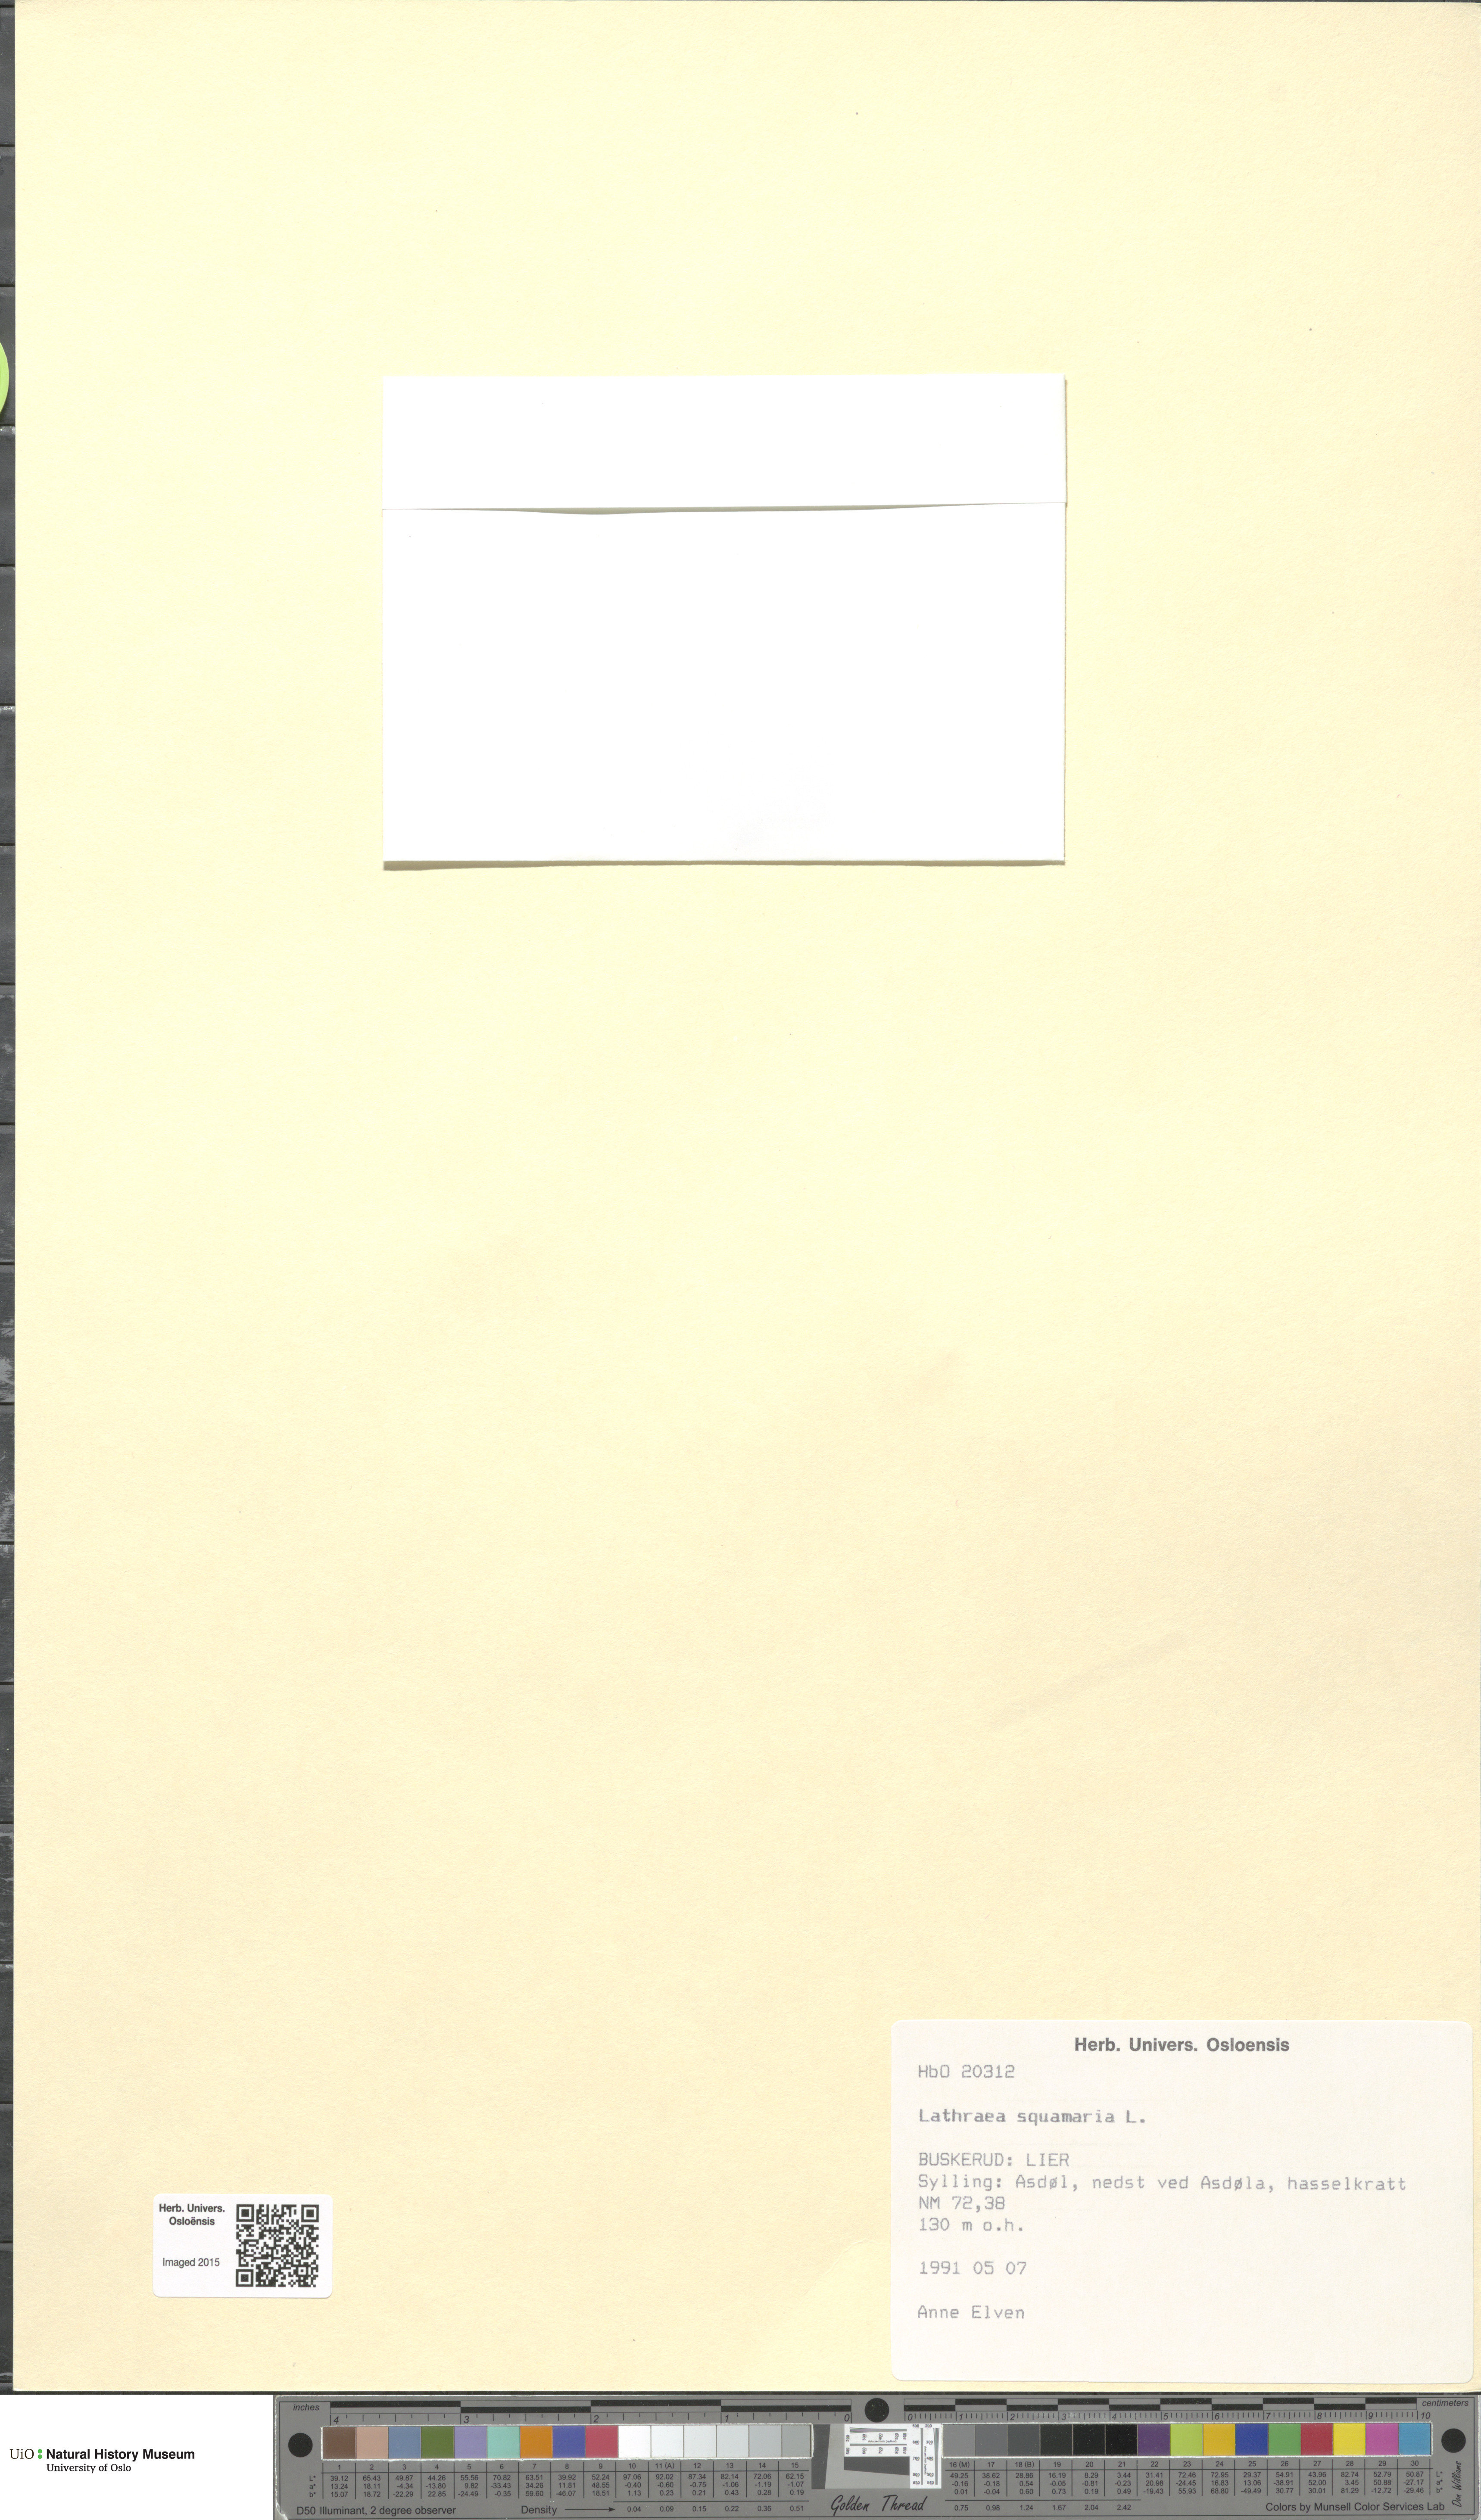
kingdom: Plantae
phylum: Tracheophyta
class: Magnoliopsida
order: Lamiales
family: Orobanchaceae
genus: Lathraea
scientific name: Lathraea squamaria
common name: Toothwort
